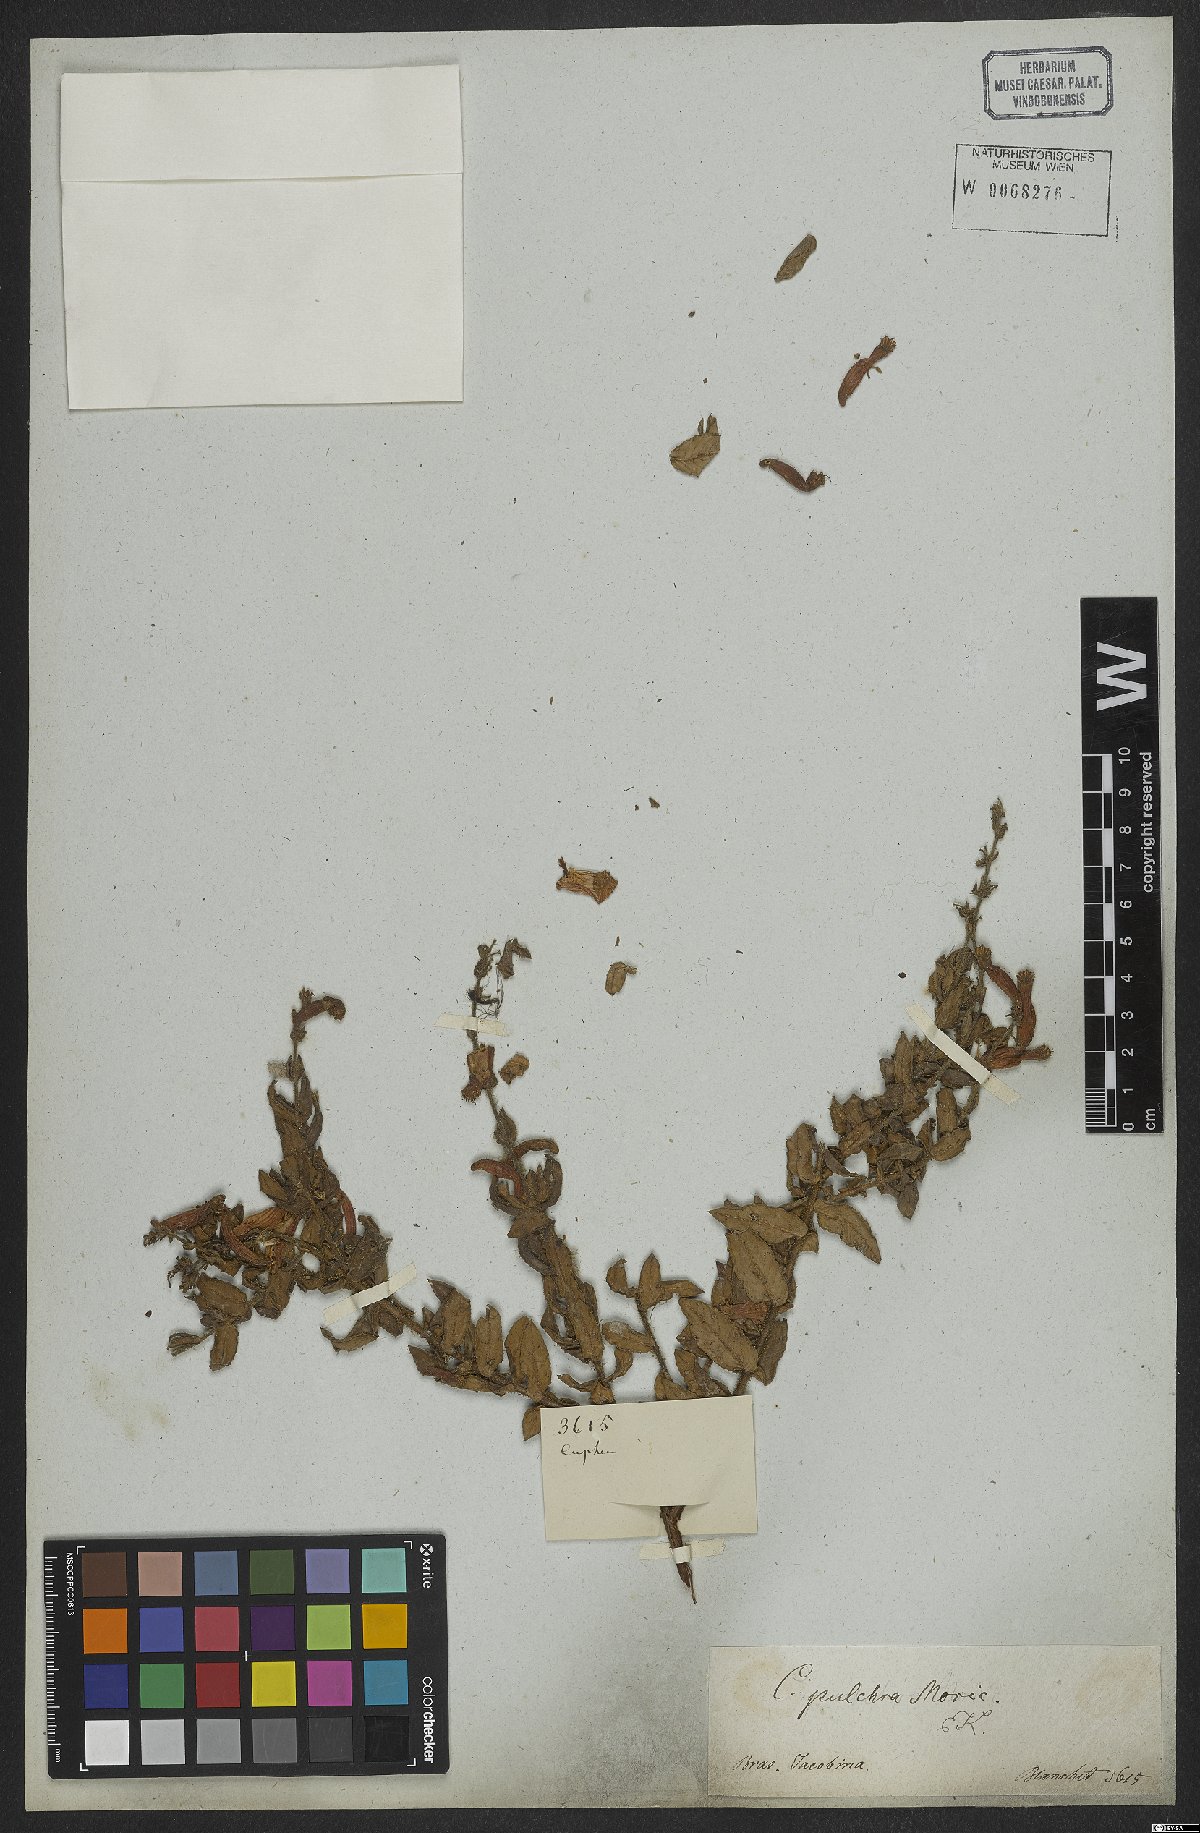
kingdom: Plantae
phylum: Tracheophyta
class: Magnoliopsida
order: Myrtales
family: Lythraceae
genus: Cuphea
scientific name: Cuphea pulchra
